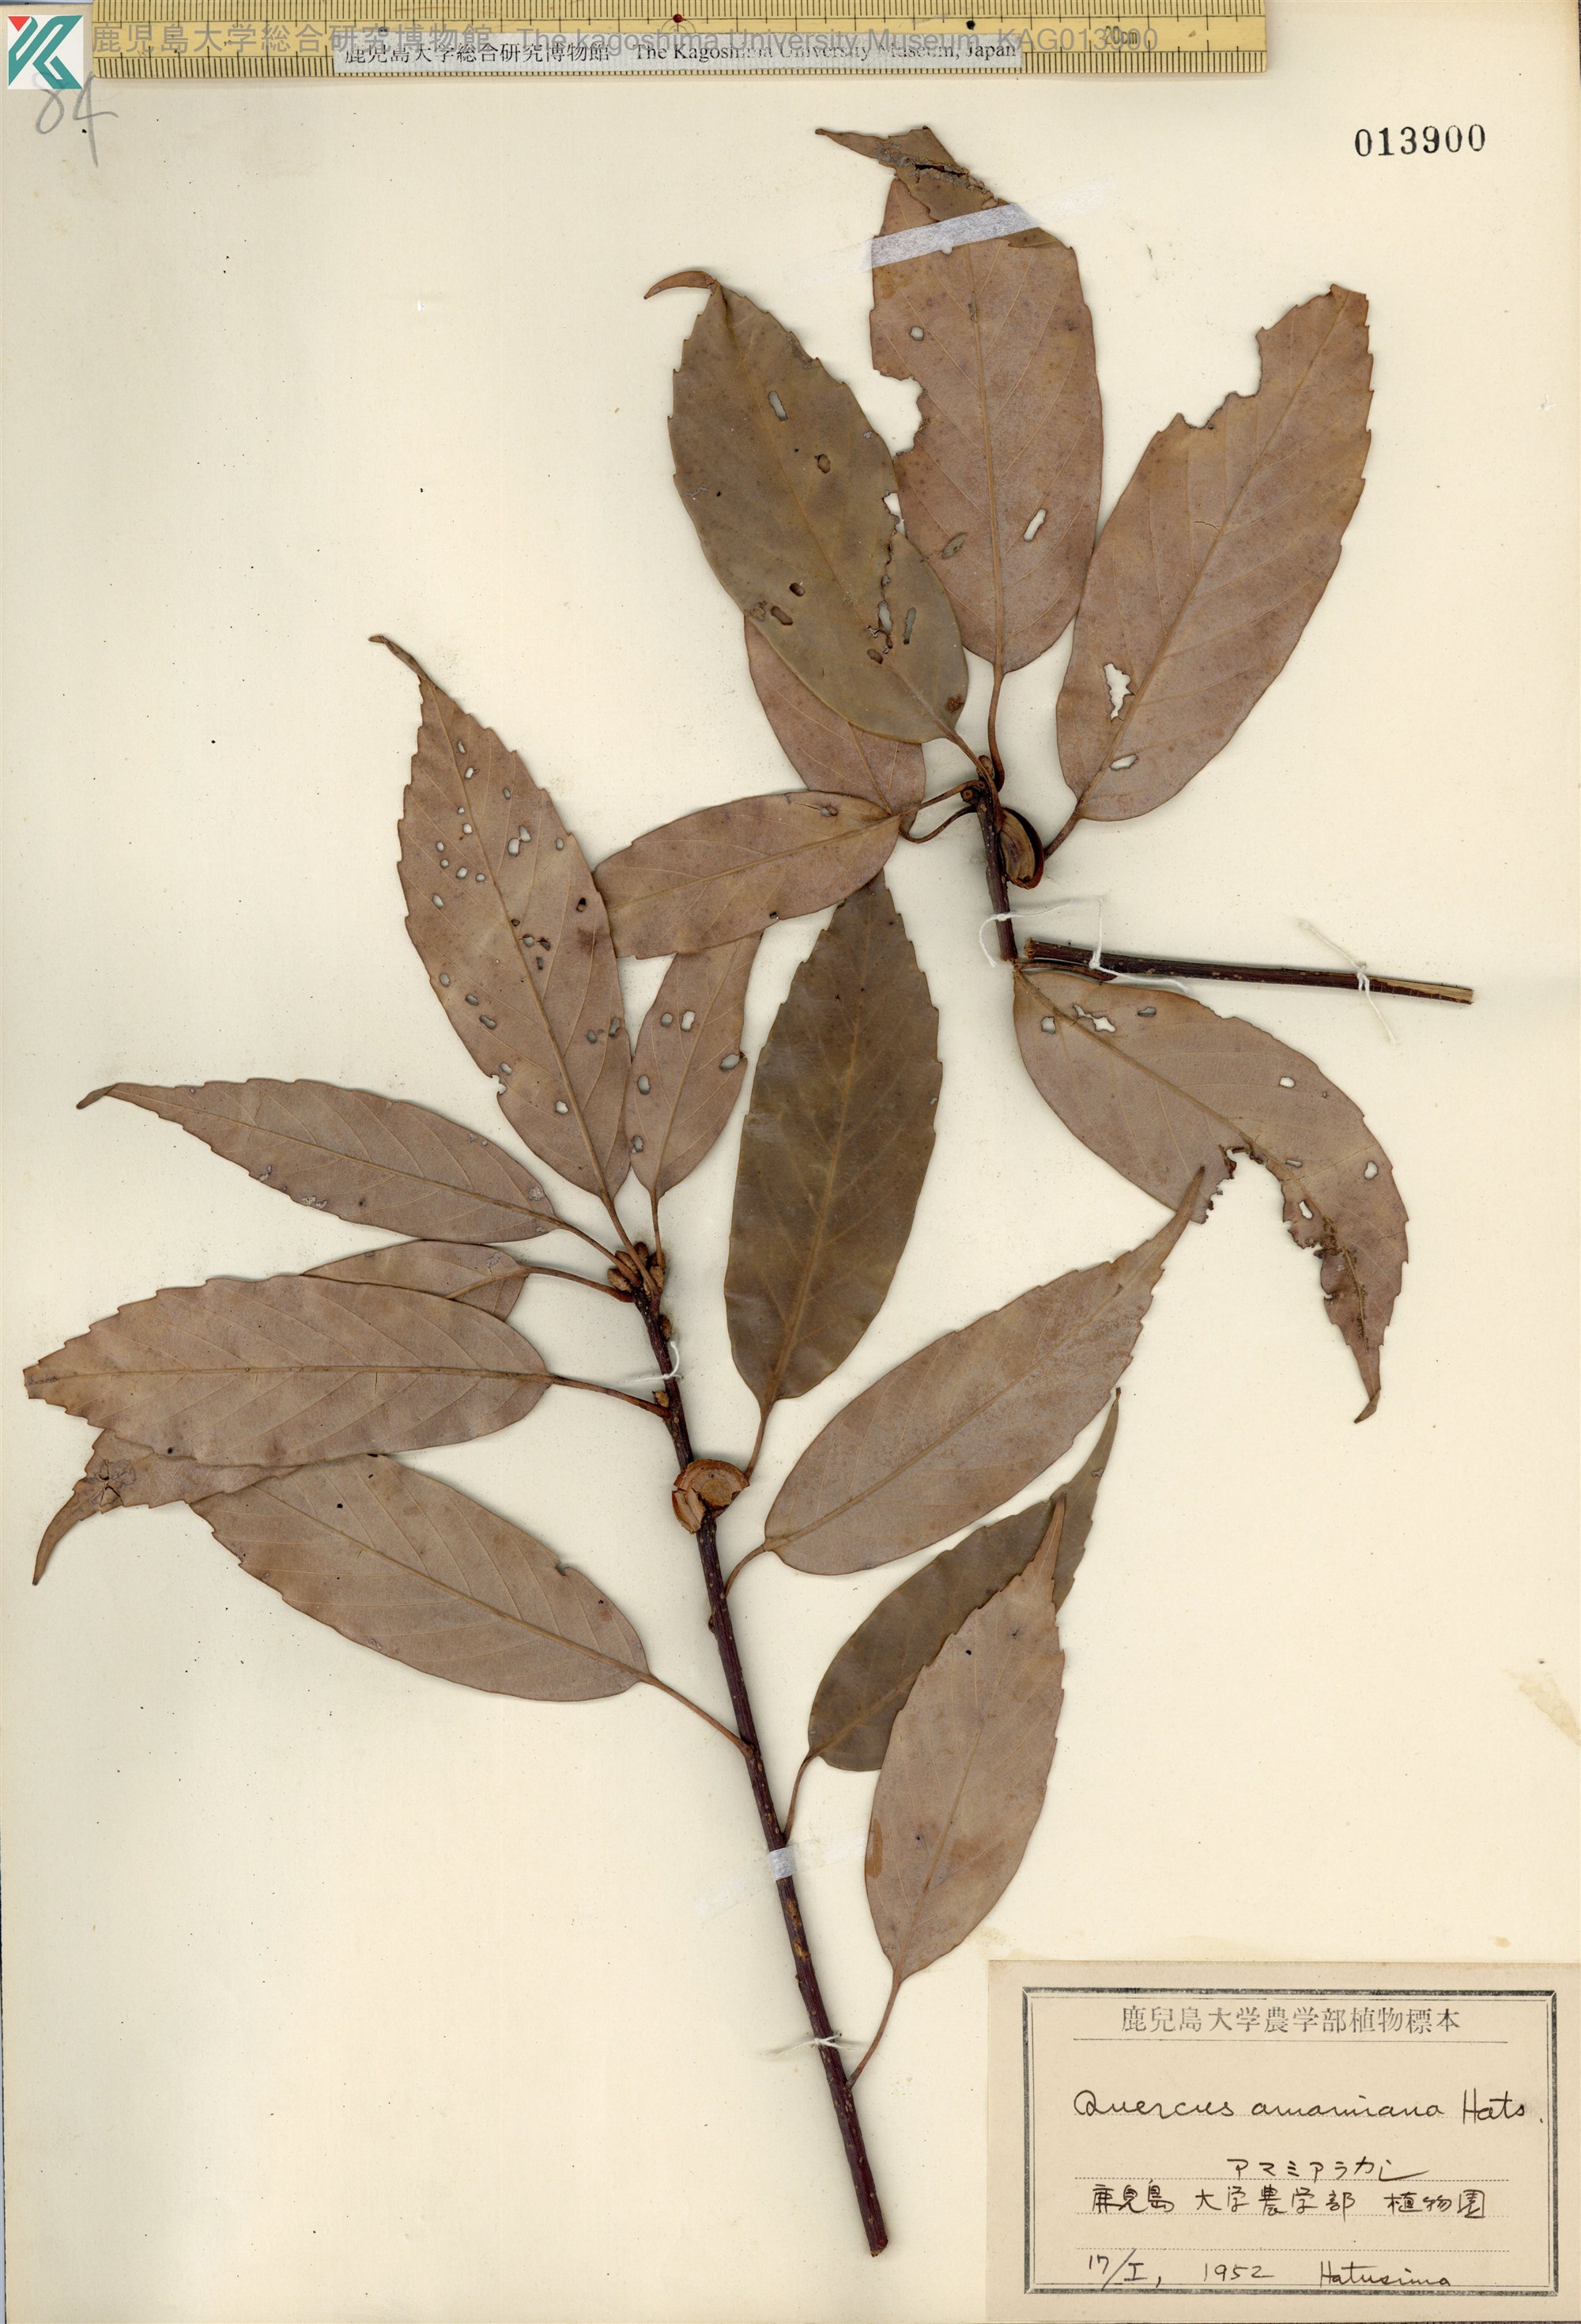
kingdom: Plantae
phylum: Tracheophyta
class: Magnoliopsida
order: Fagales
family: Fagaceae
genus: Quercus
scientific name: Quercus glauca
